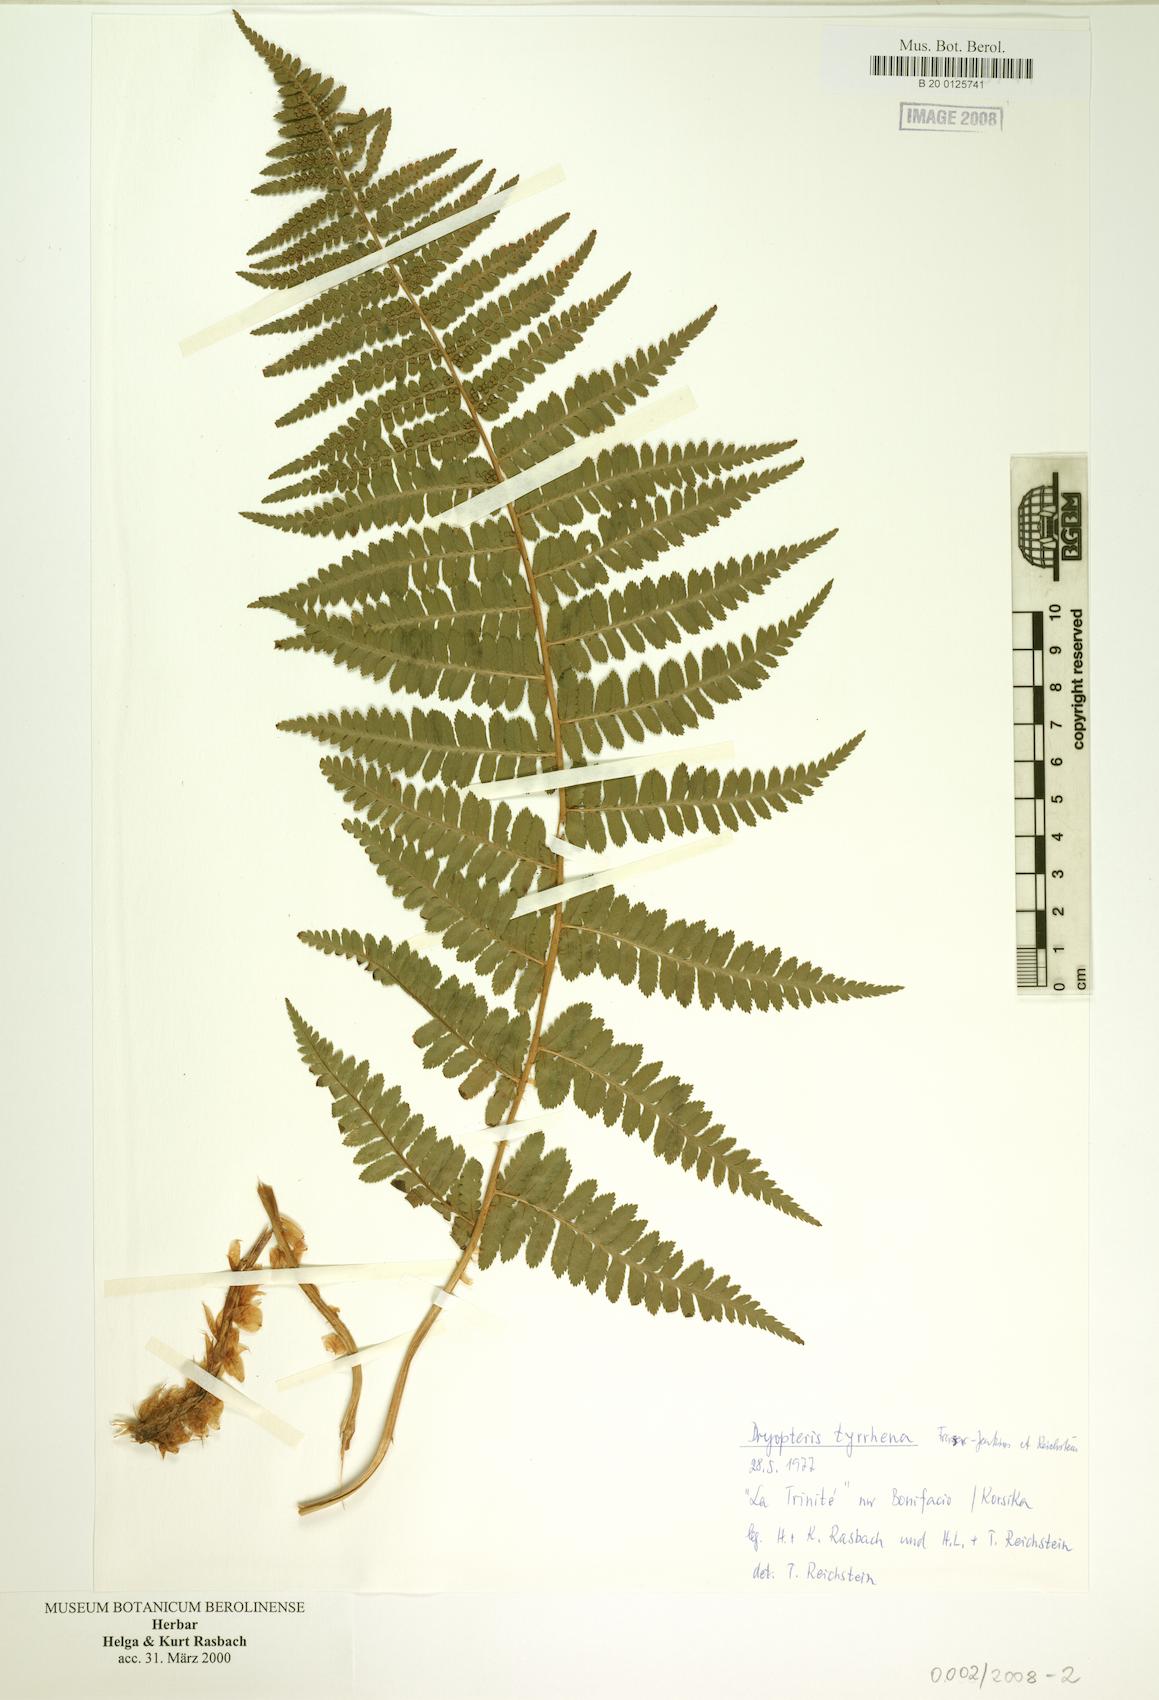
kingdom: Plantae
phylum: Tracheophyta
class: Polypodiopsida
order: Polypodiales
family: Dryopteridaceae
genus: Dryopteris
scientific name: Dryopteris tyrrhena
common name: Mediterranean buckler-fern
